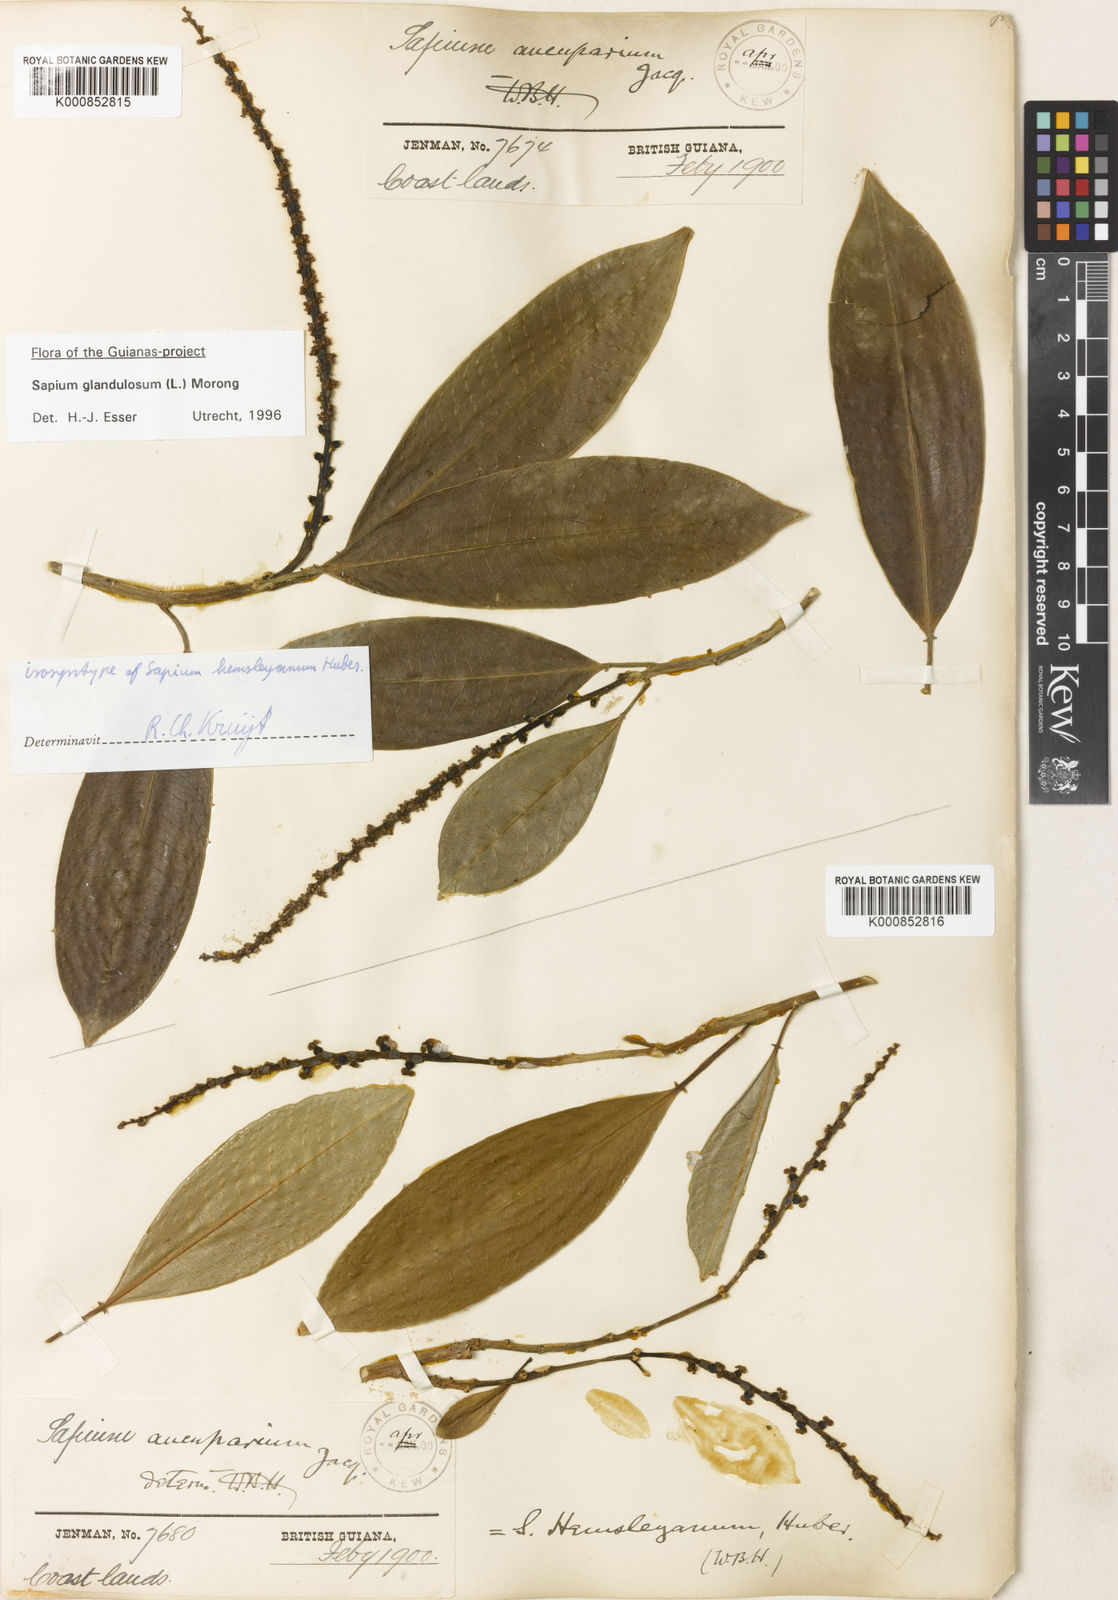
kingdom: Plantae
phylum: Tracheophyta
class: Magnoliopsida
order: Malpighiales
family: Euphorbiaceae
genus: Sapium
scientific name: Sapium glandulosum
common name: Milktree
